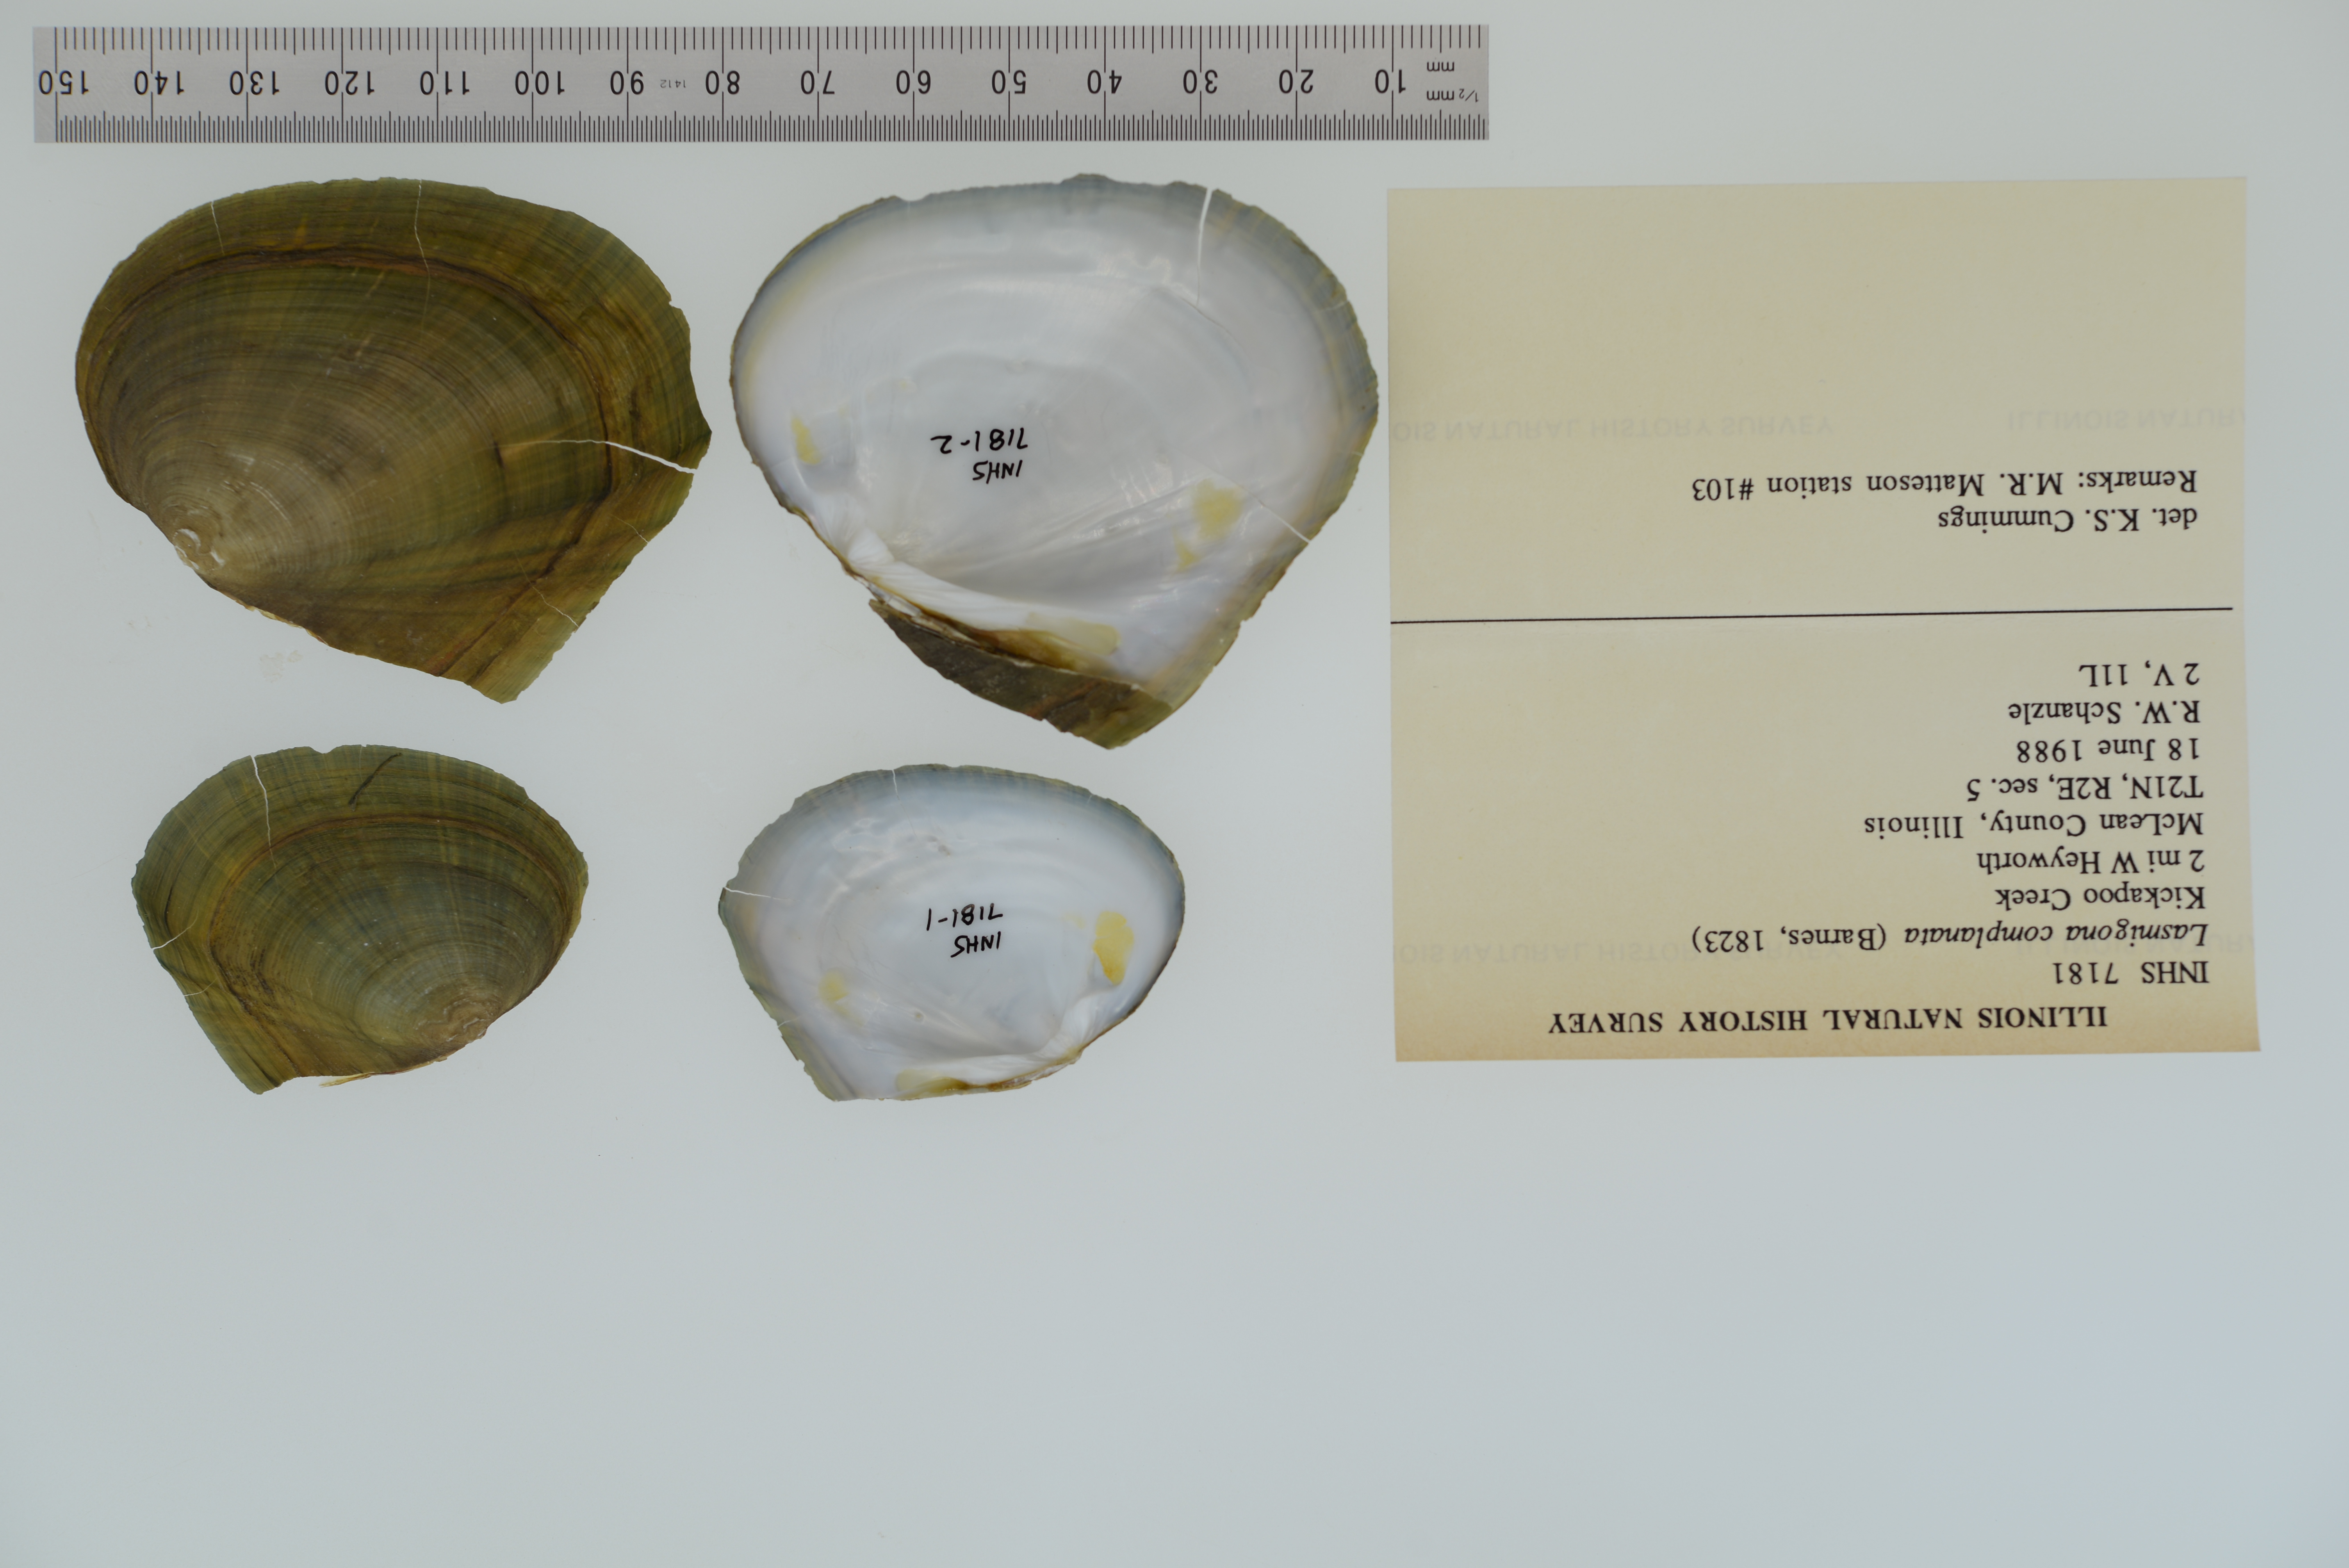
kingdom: Animalia
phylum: Mollusca
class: Bivalvia
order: Unionida
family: Unionidae
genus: Lasmigona
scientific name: Lasmigona complanata
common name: White heelsplitter
